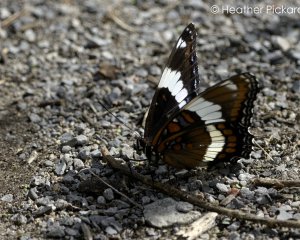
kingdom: Animalia
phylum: Arthropoda
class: Insecta
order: Lepidoptera
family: Nymphalidae
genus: Limenitis
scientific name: Limenitis arthemis
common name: Red-spotted Admiral
